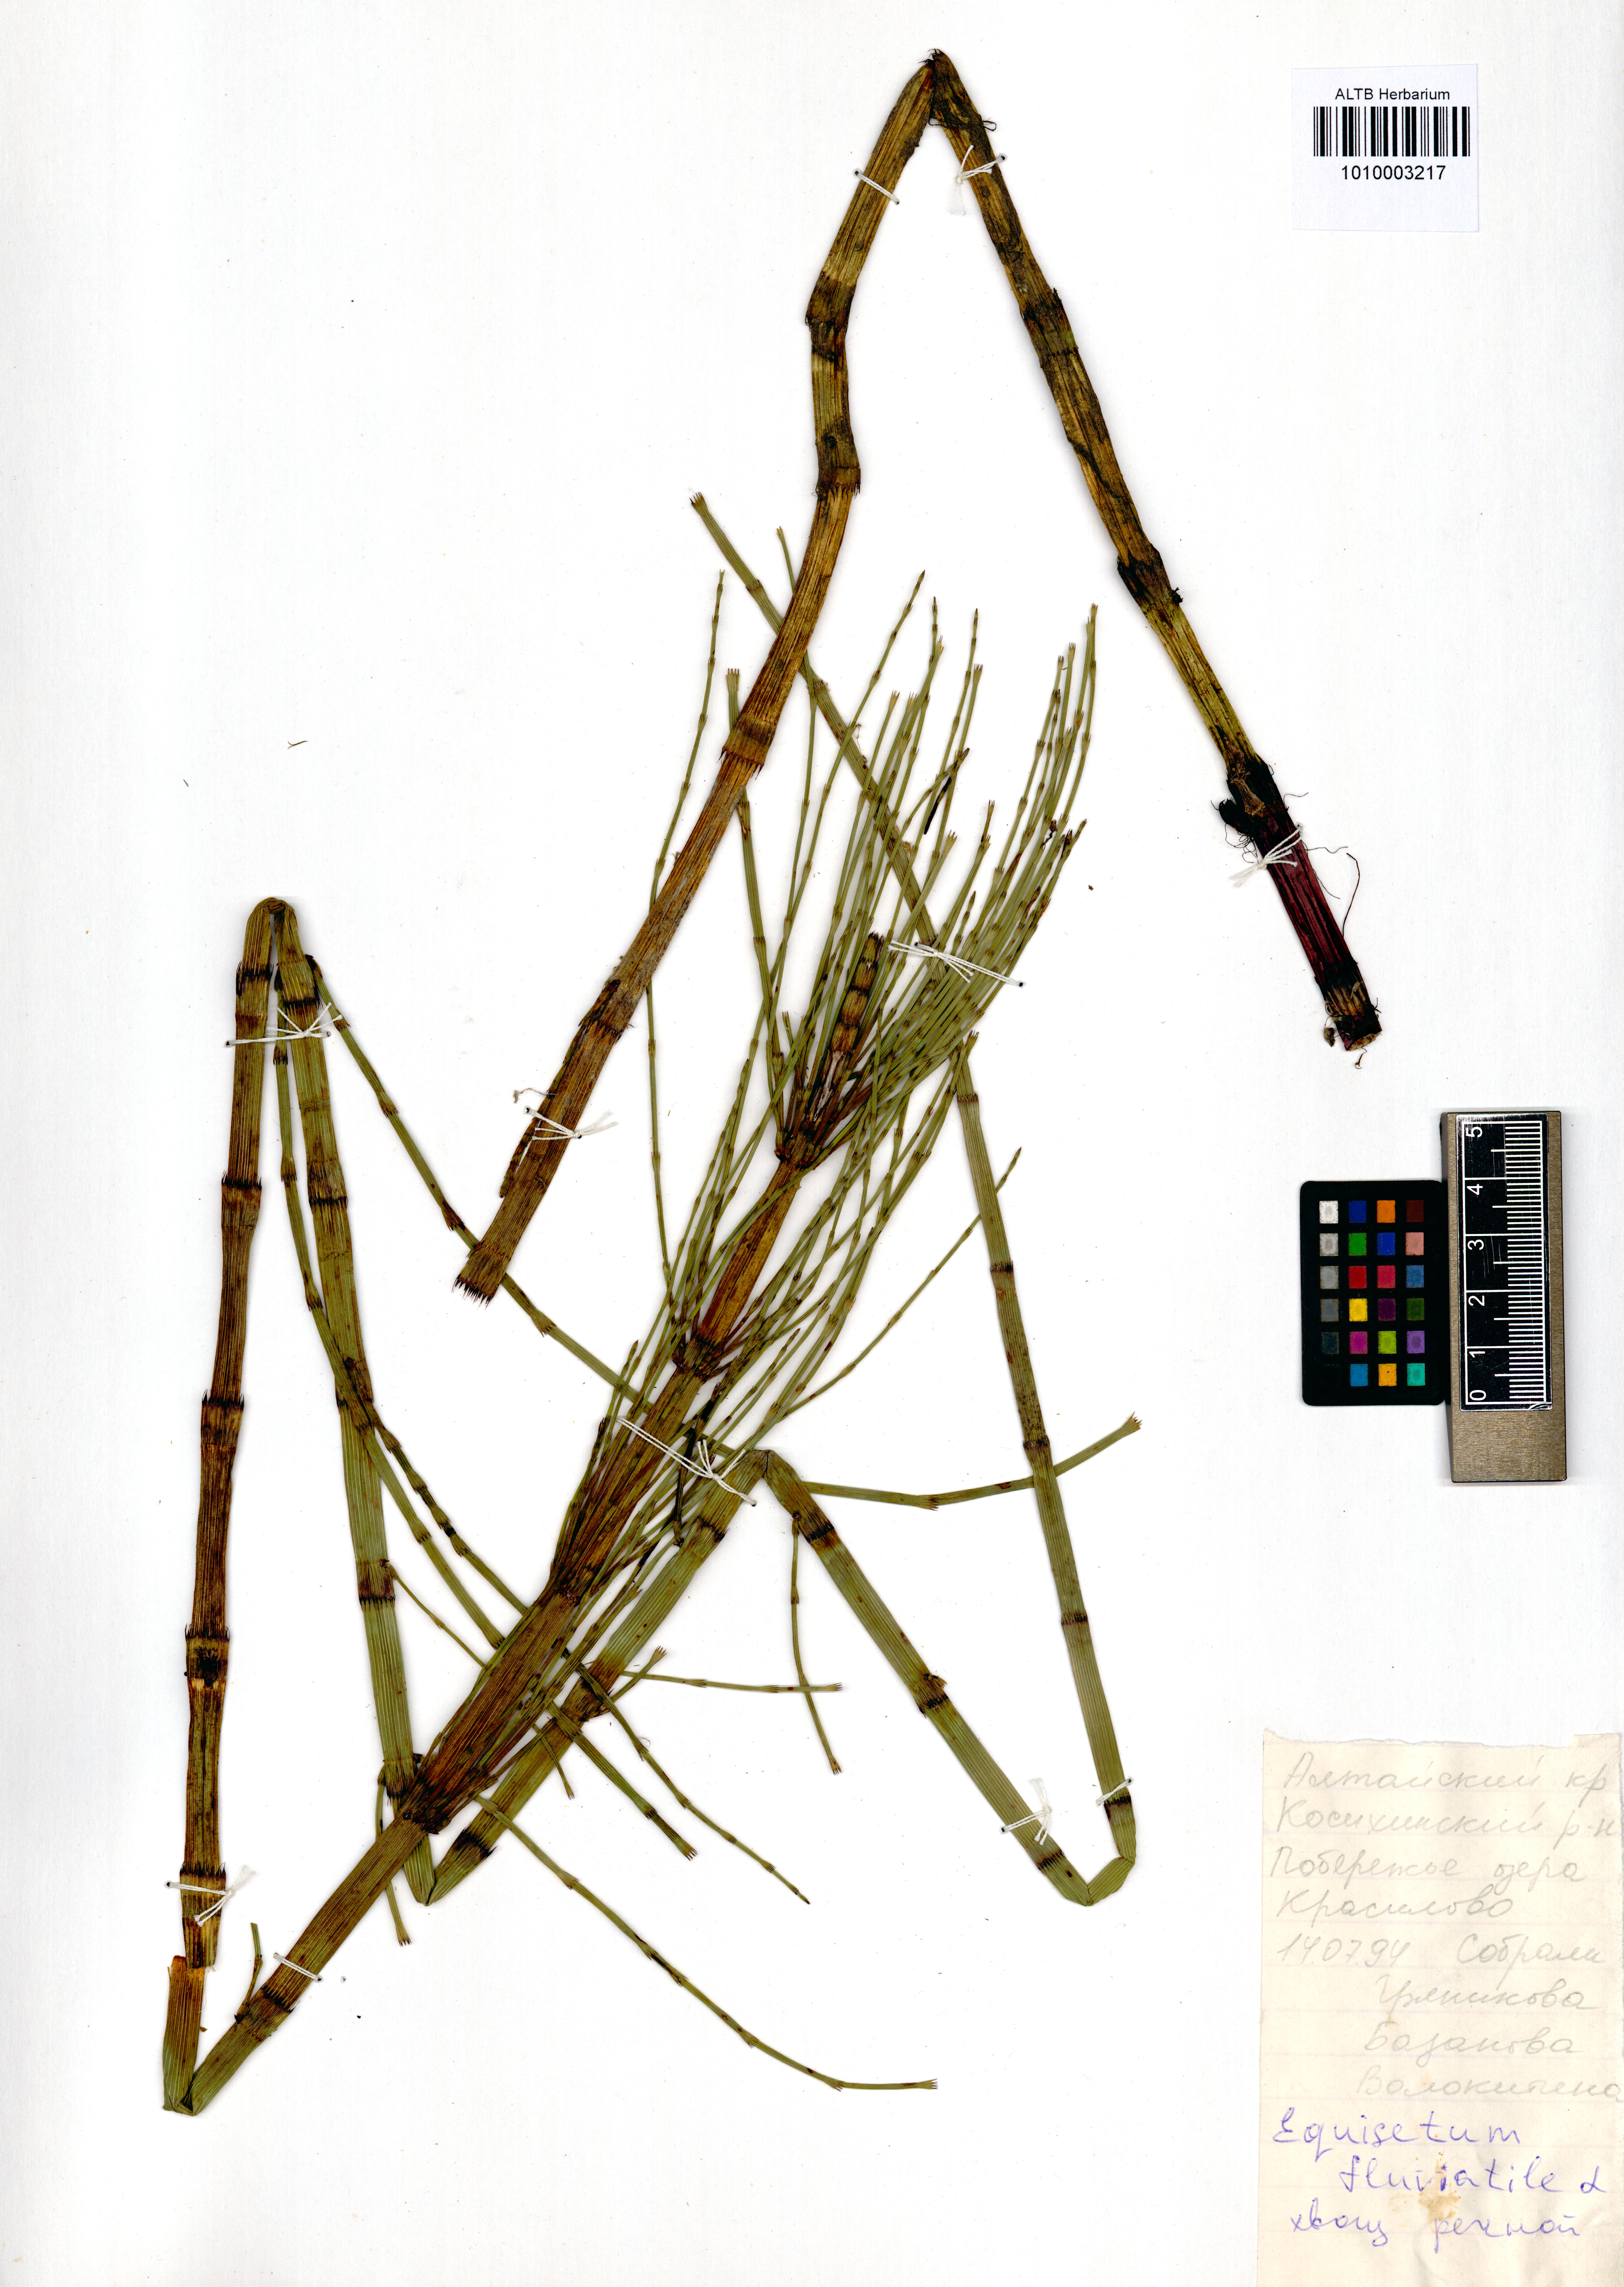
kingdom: Plantae
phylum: Tracheophyta
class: Polypodiopsida
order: Equisetales
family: Equisetaceae
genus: Equisetum
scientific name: Equisetum fluviatile
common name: Water horsetail
